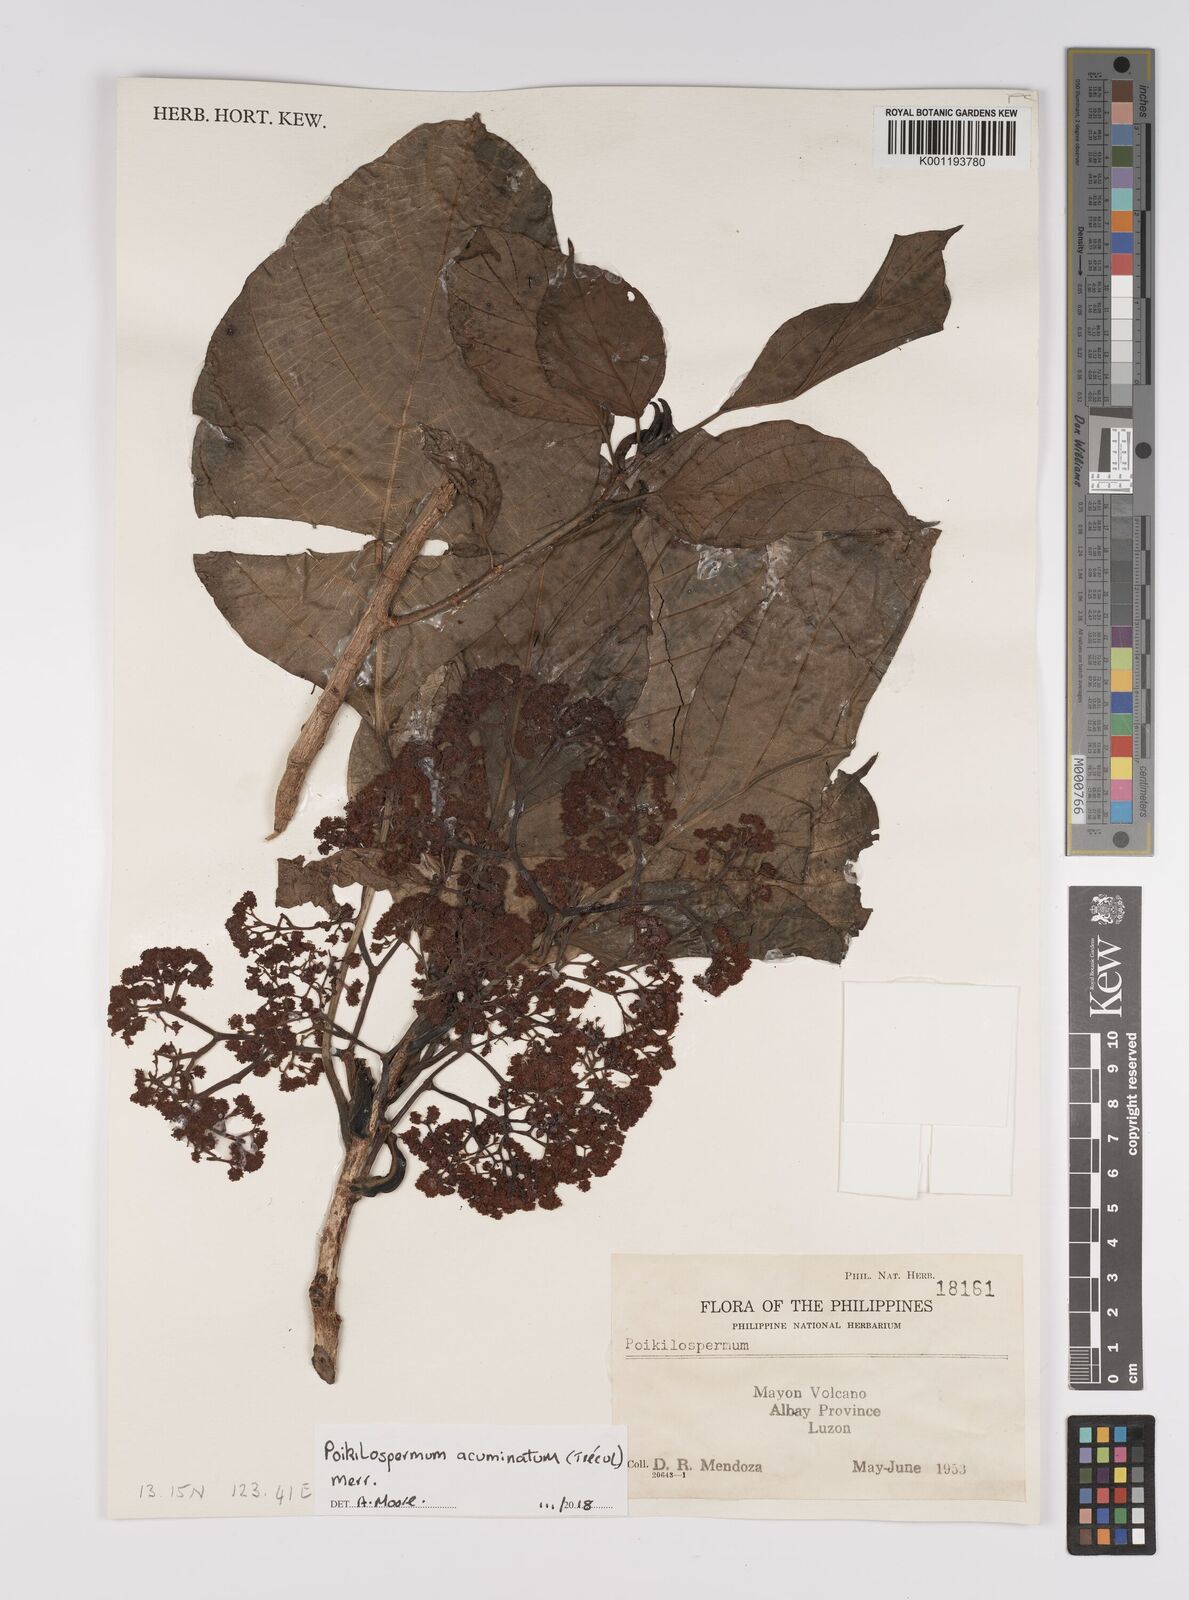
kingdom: Plantae
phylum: Tracheophyta
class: Magnoliopsida
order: Rosales
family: Urticaceae
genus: Poikilospermum
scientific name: Poikilospermum acuminatum
